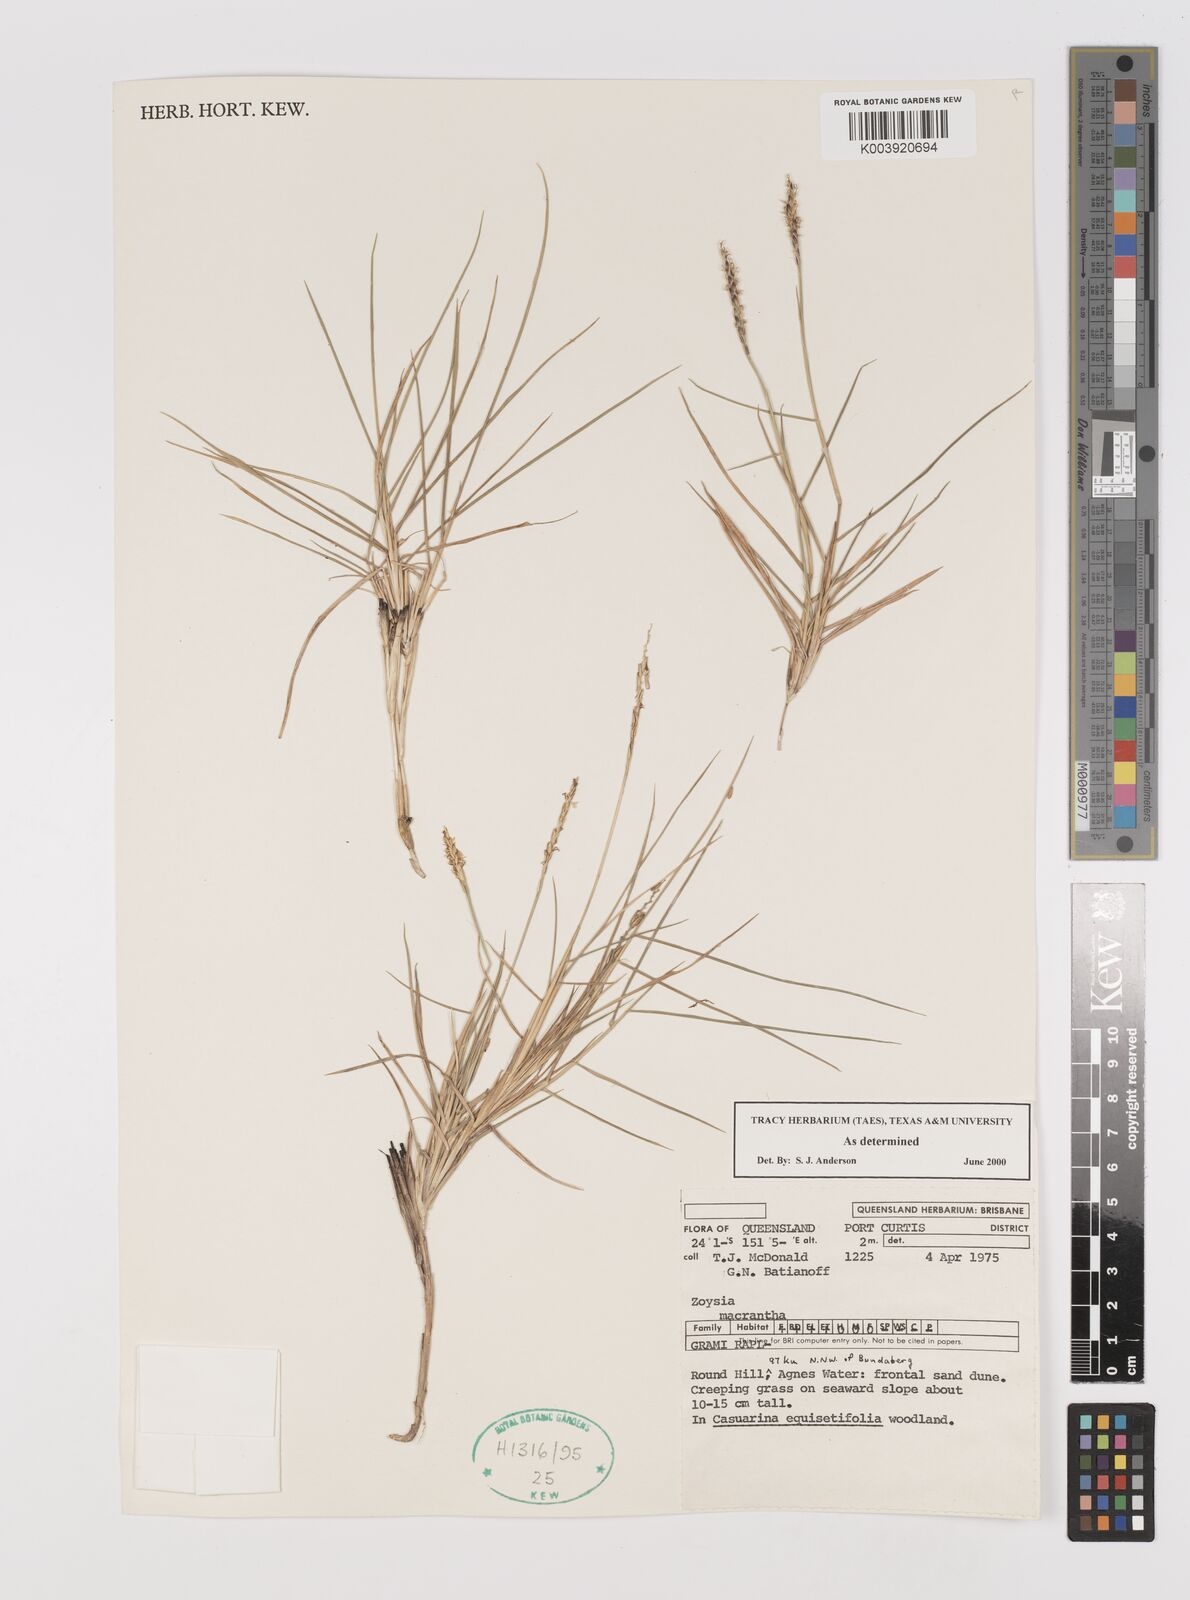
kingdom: Plantae
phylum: Tracheophyta
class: Liliopsida
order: Poales
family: Poaceae
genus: Zoysia
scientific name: Zoysia macrantha
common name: Korean lawn grass
